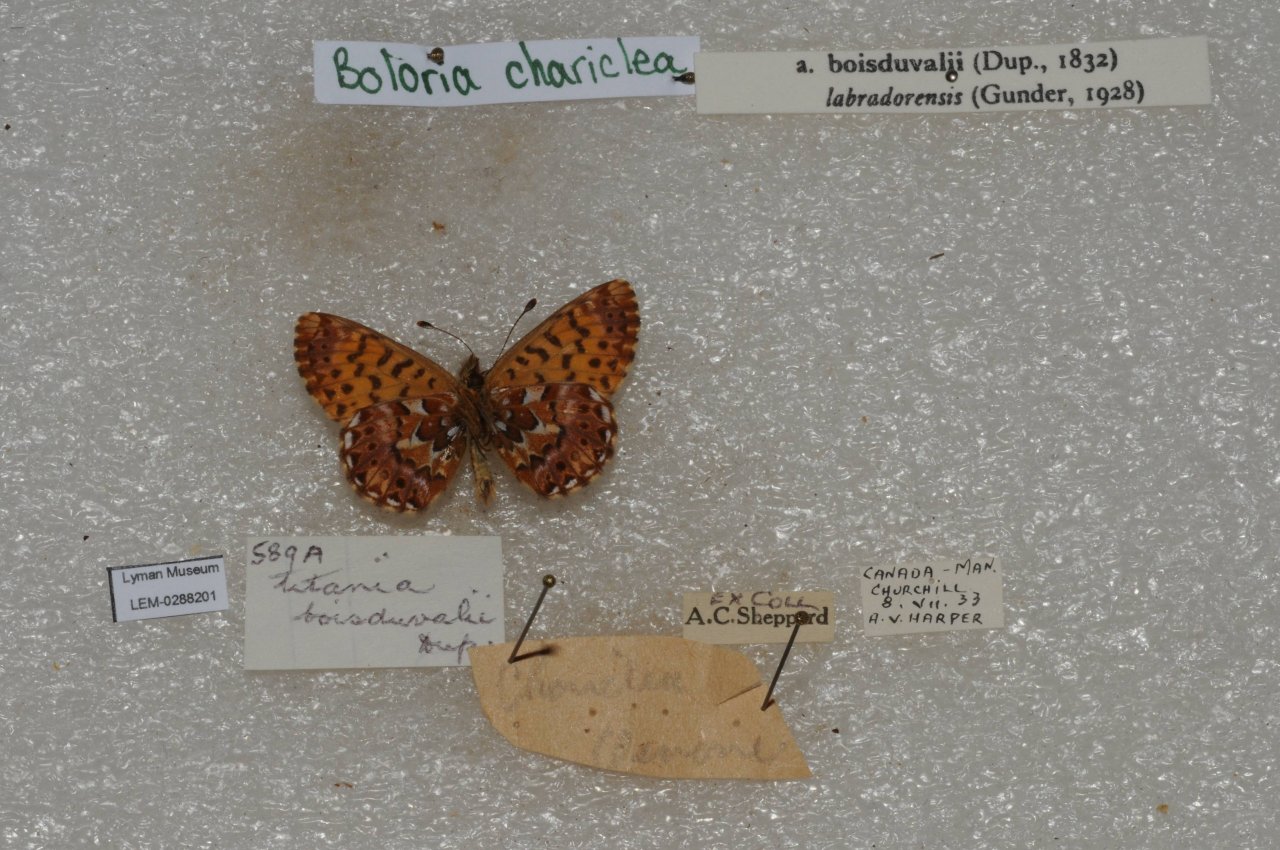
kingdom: Animalia
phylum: Arthropoda
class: Insecta
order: Lepidoptera
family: Nymphalidae
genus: Boloria
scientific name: Boloria chariclea
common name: Arctic Fritillary
